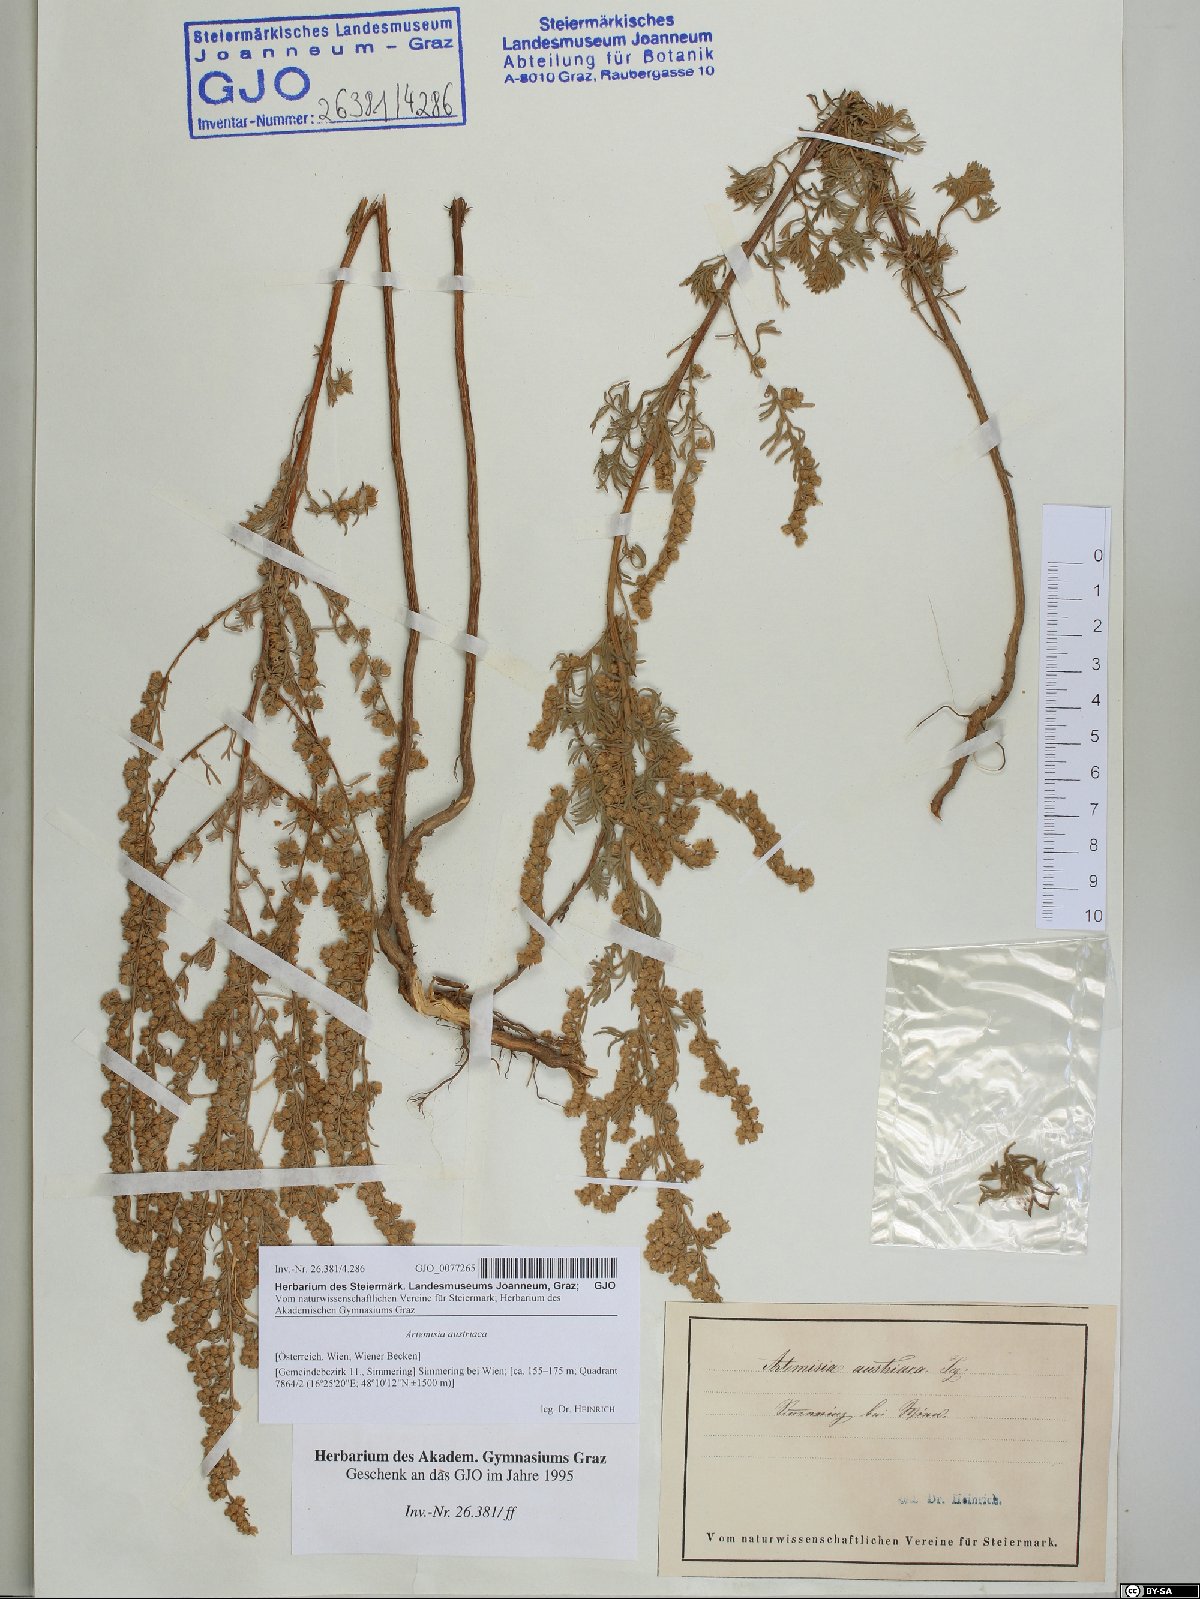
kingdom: Plantae
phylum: Tracheophyta
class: Magnoliopsida
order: Asterales
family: Asteraceae
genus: Artemisia
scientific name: Artemisia austriaca
